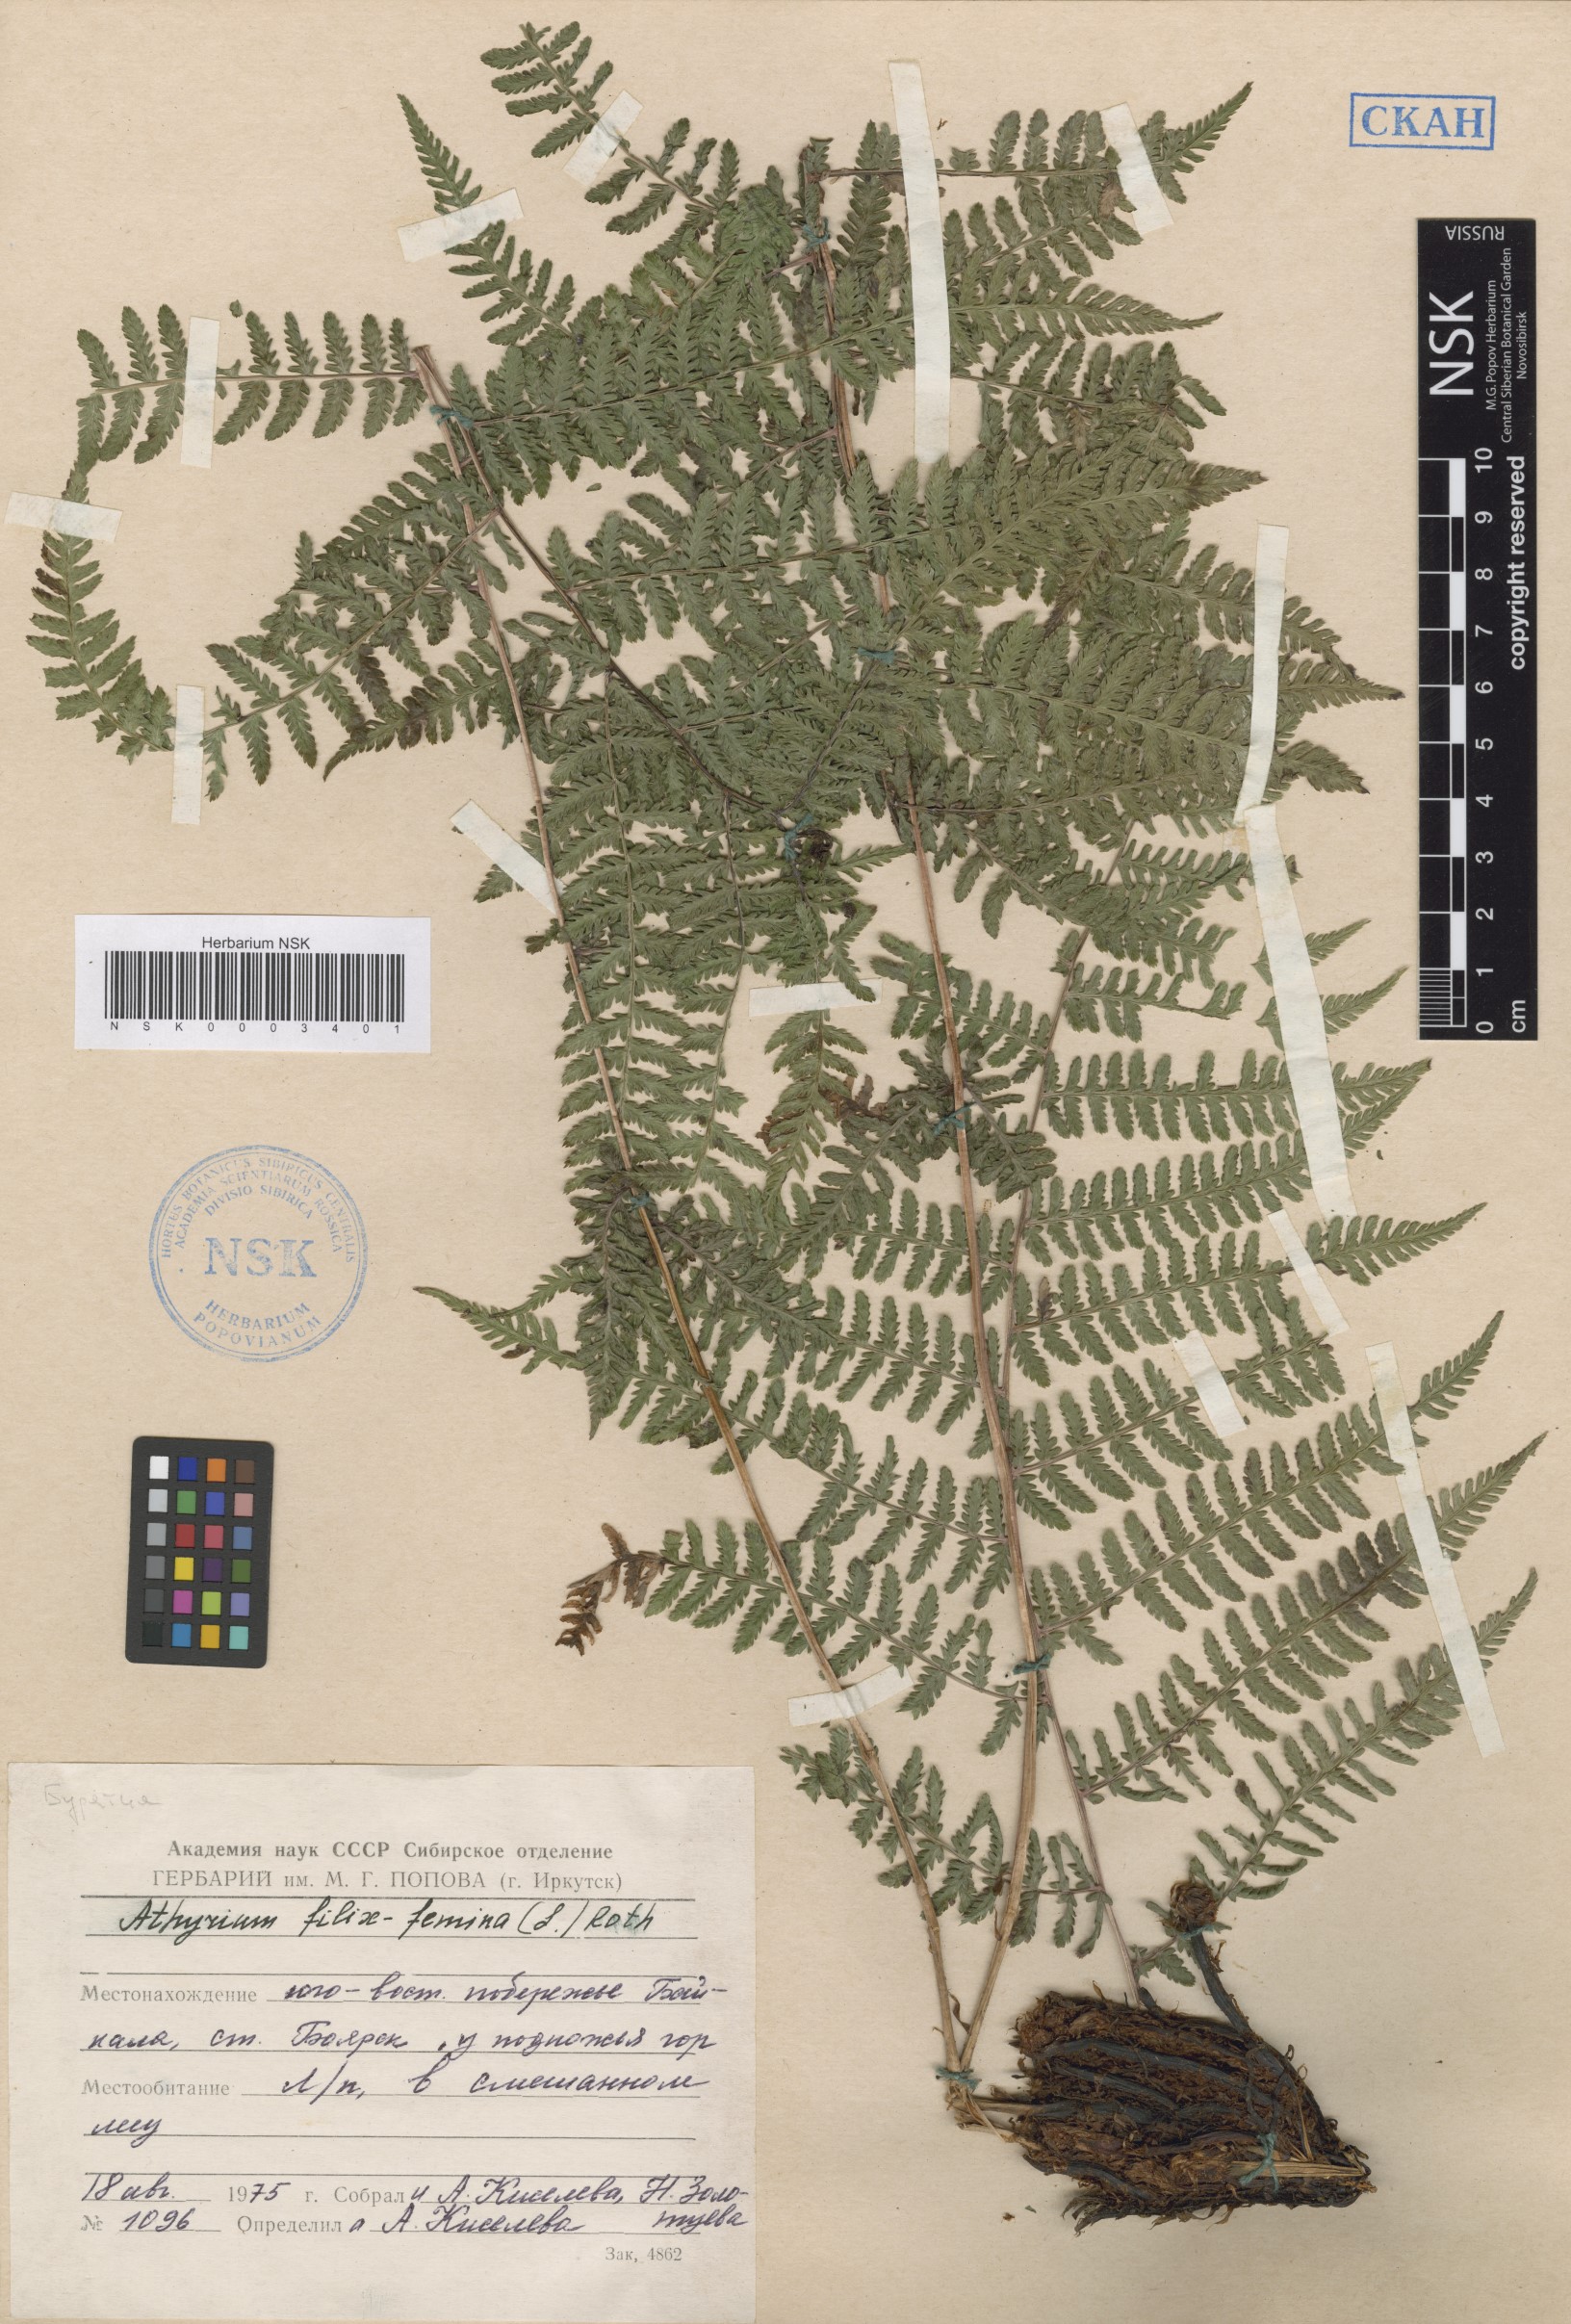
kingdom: Plantae
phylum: Tracheophyta
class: Polypodiopsida
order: Polypodiales
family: Athyriaceae
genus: Athyrium
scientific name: Athyrium filix-femina
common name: Lady fern
